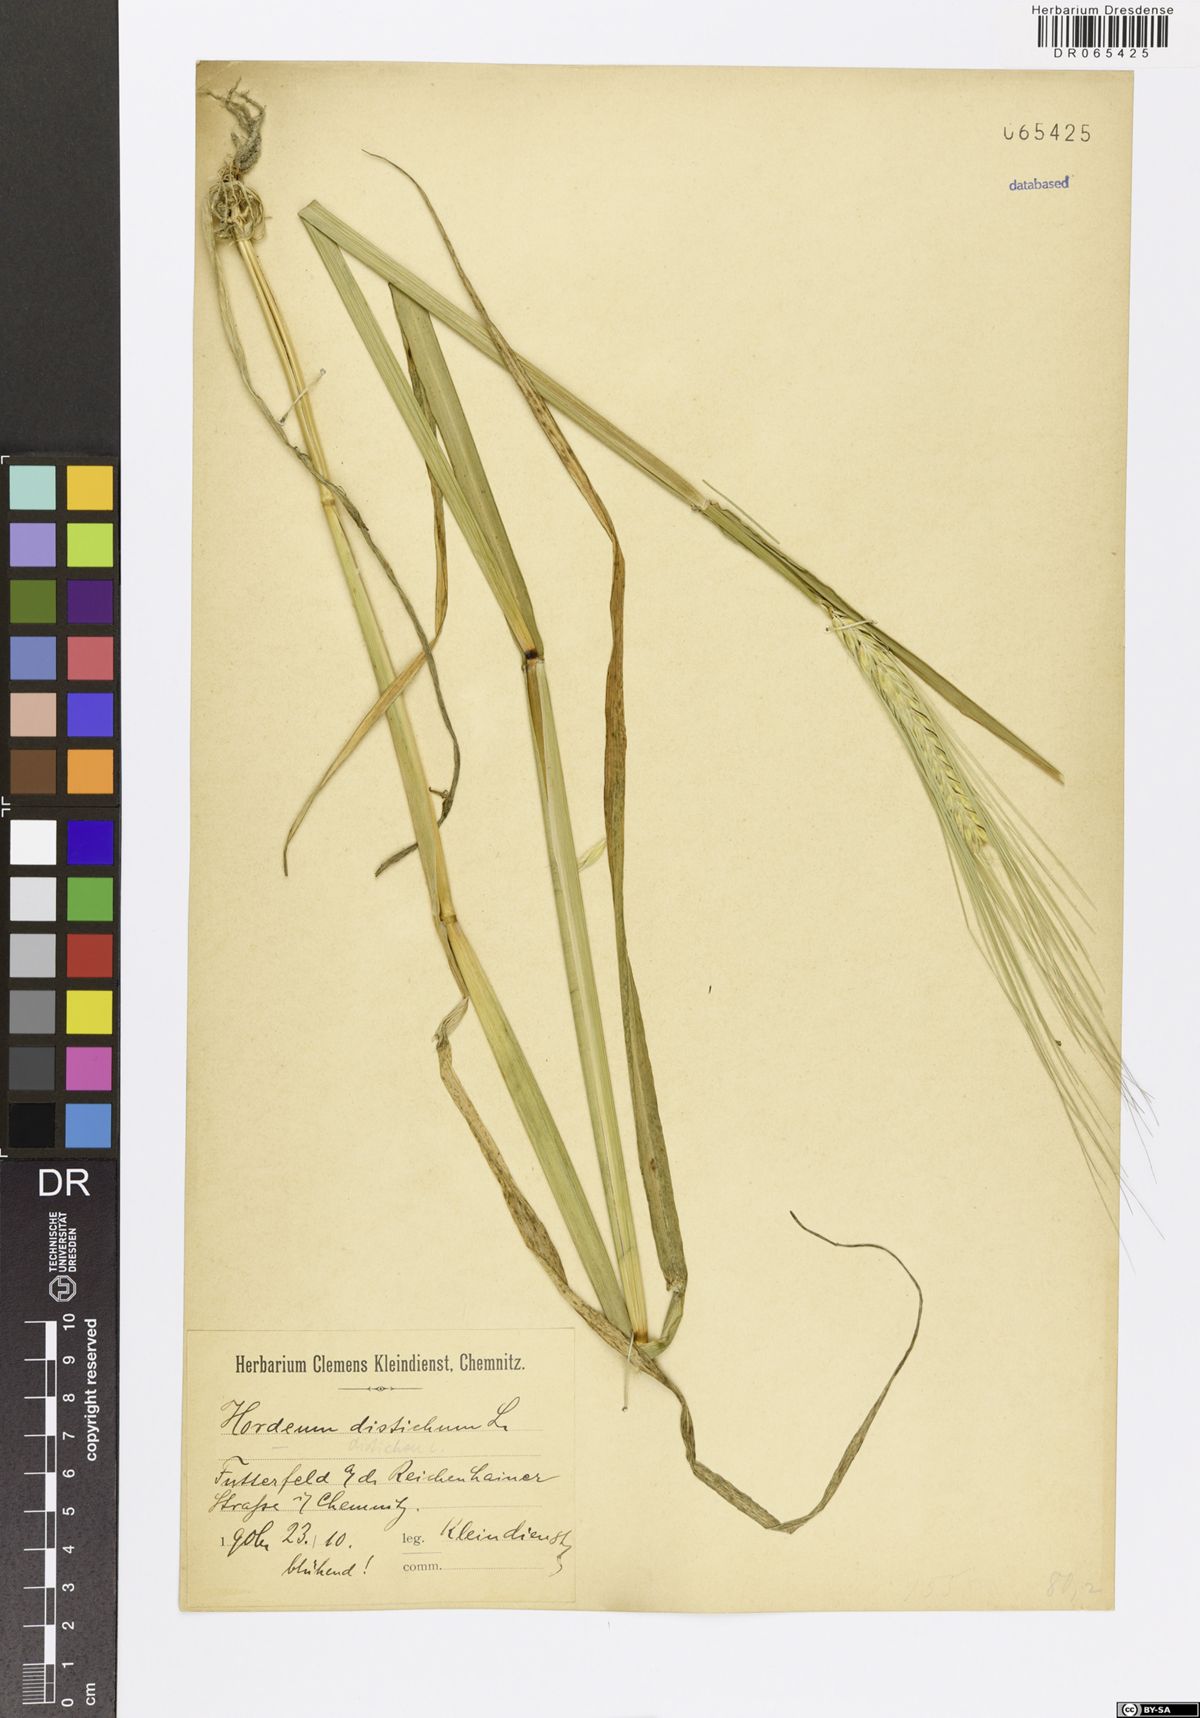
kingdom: Plantae
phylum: Tracheophyta
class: Liliopsida
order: Poales
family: Poaceae
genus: Hordeum
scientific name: Hordeum distichon
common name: Two-rowed barley
